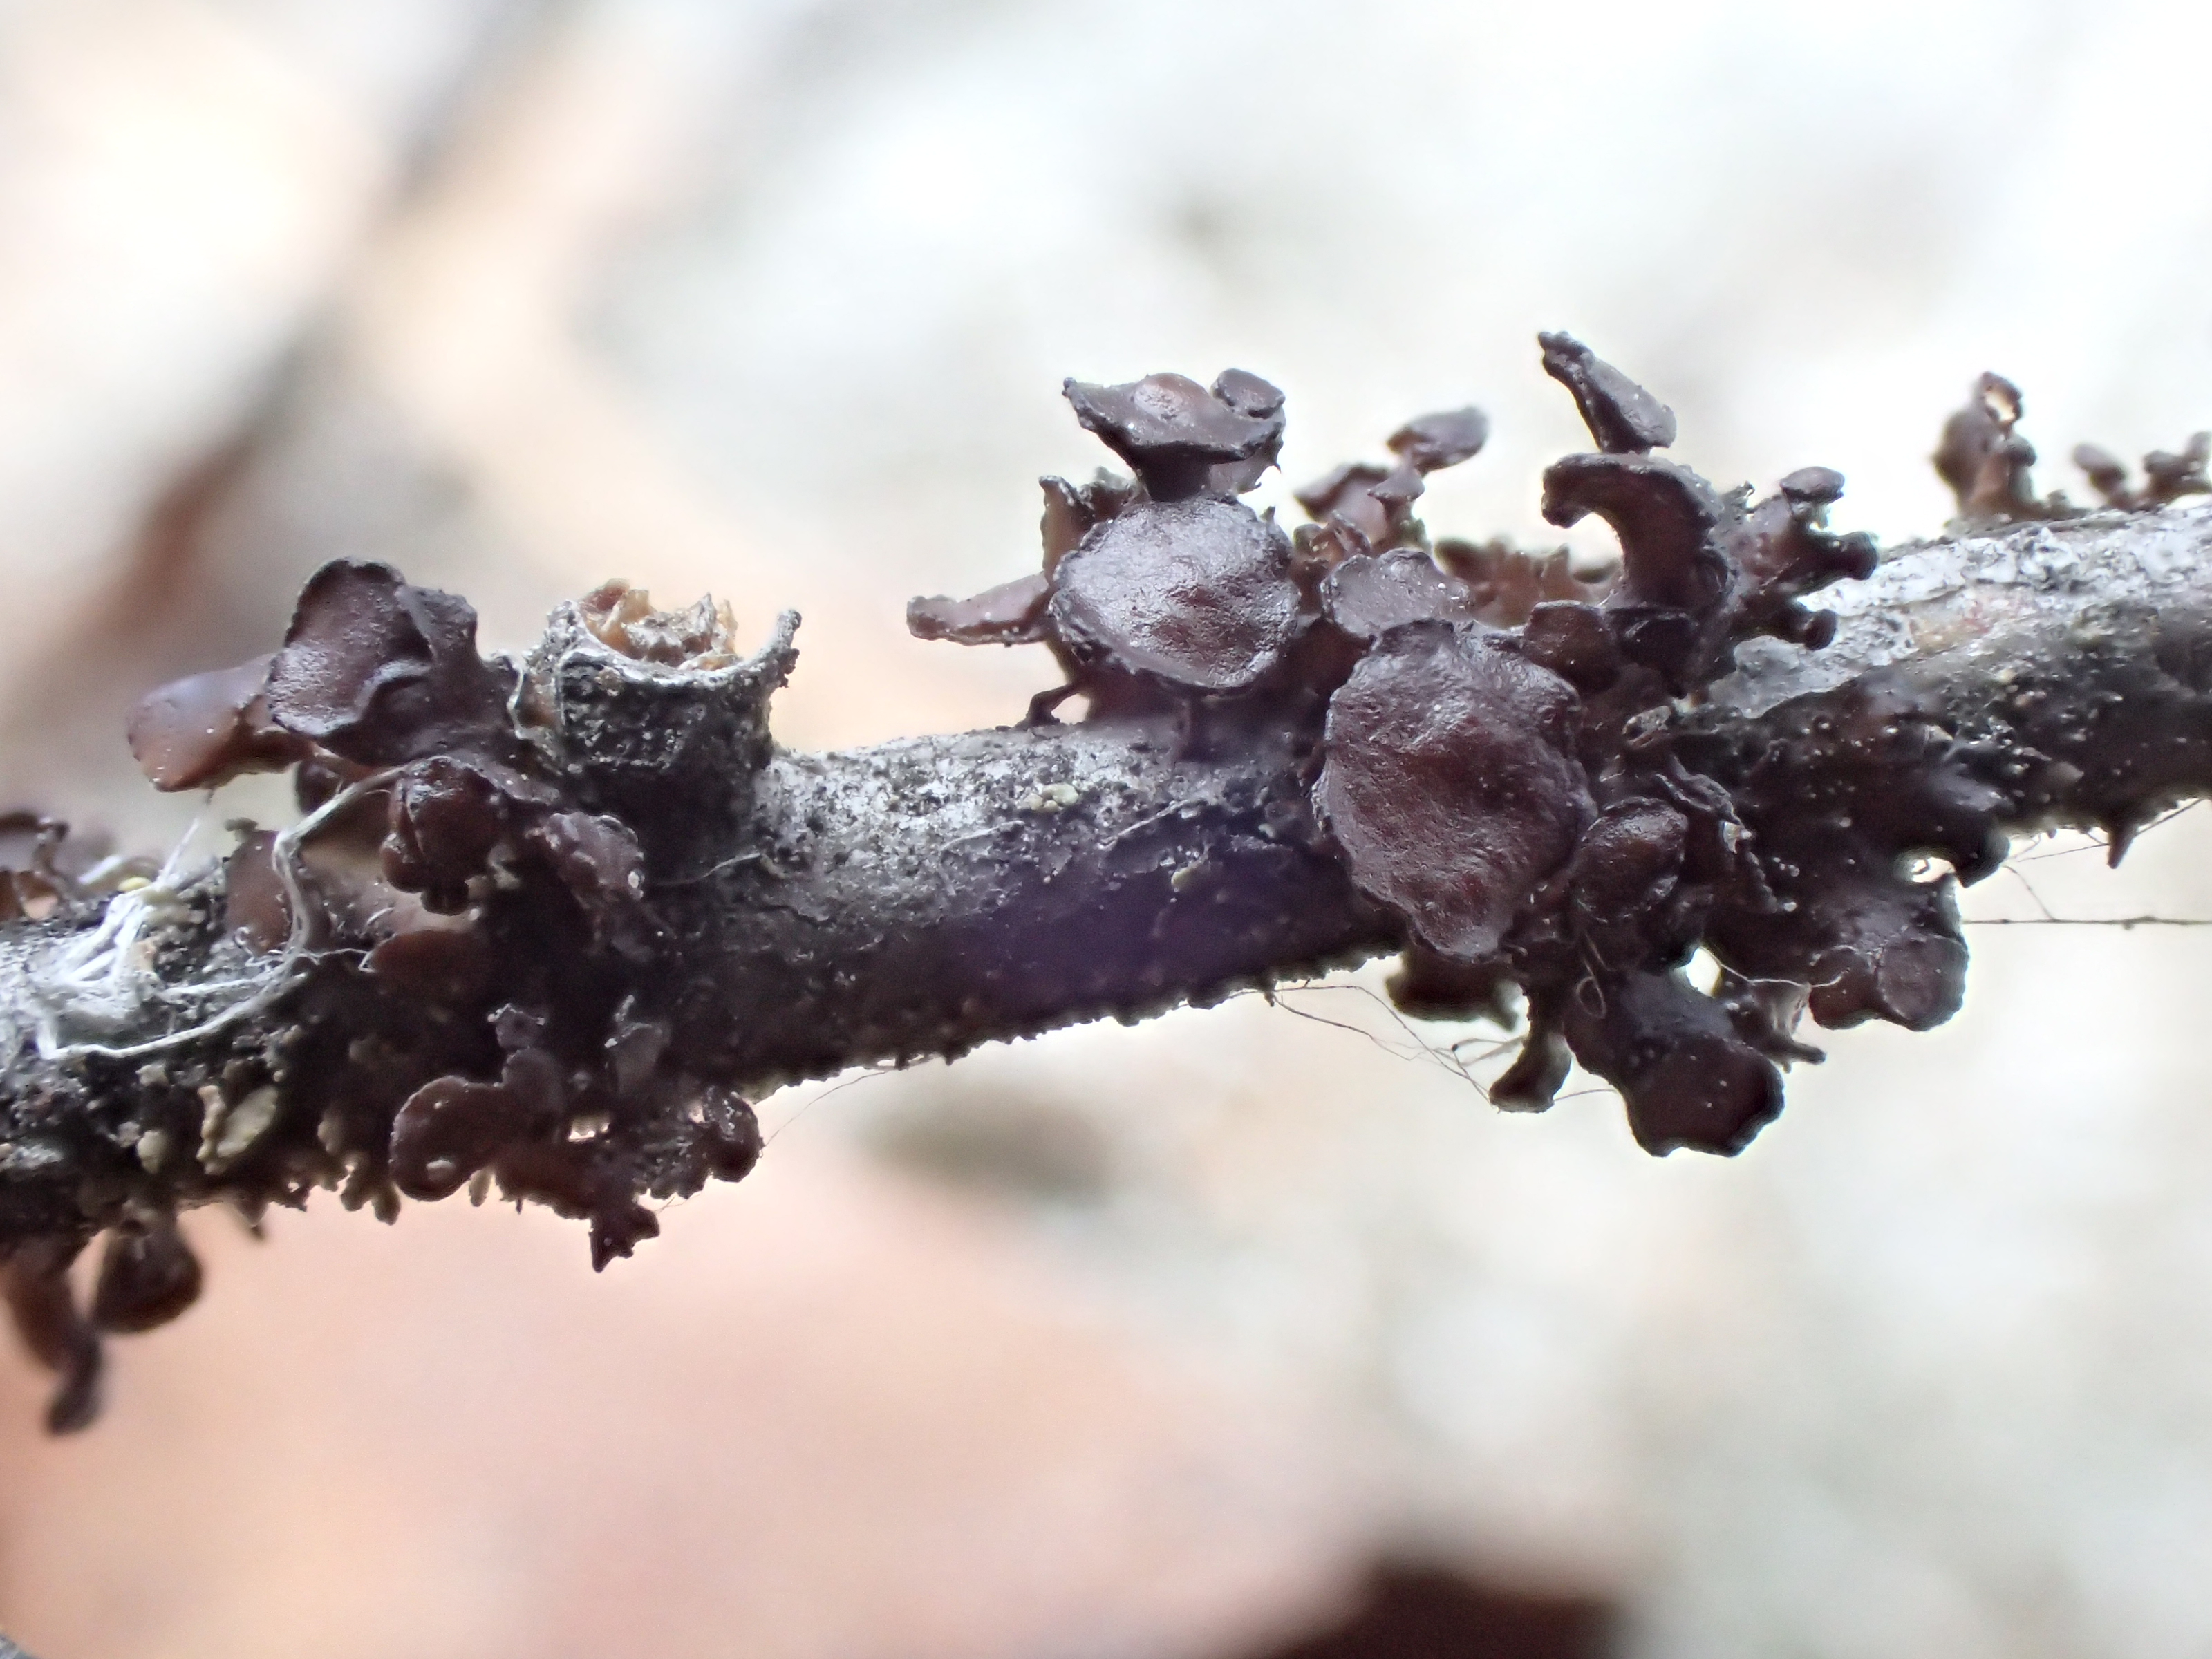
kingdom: Fungi
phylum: Ascomycota
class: Lecanoromycetes
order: Lecanorales
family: Parmeliaceae
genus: Cetraria
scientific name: Cetraria sepincola
